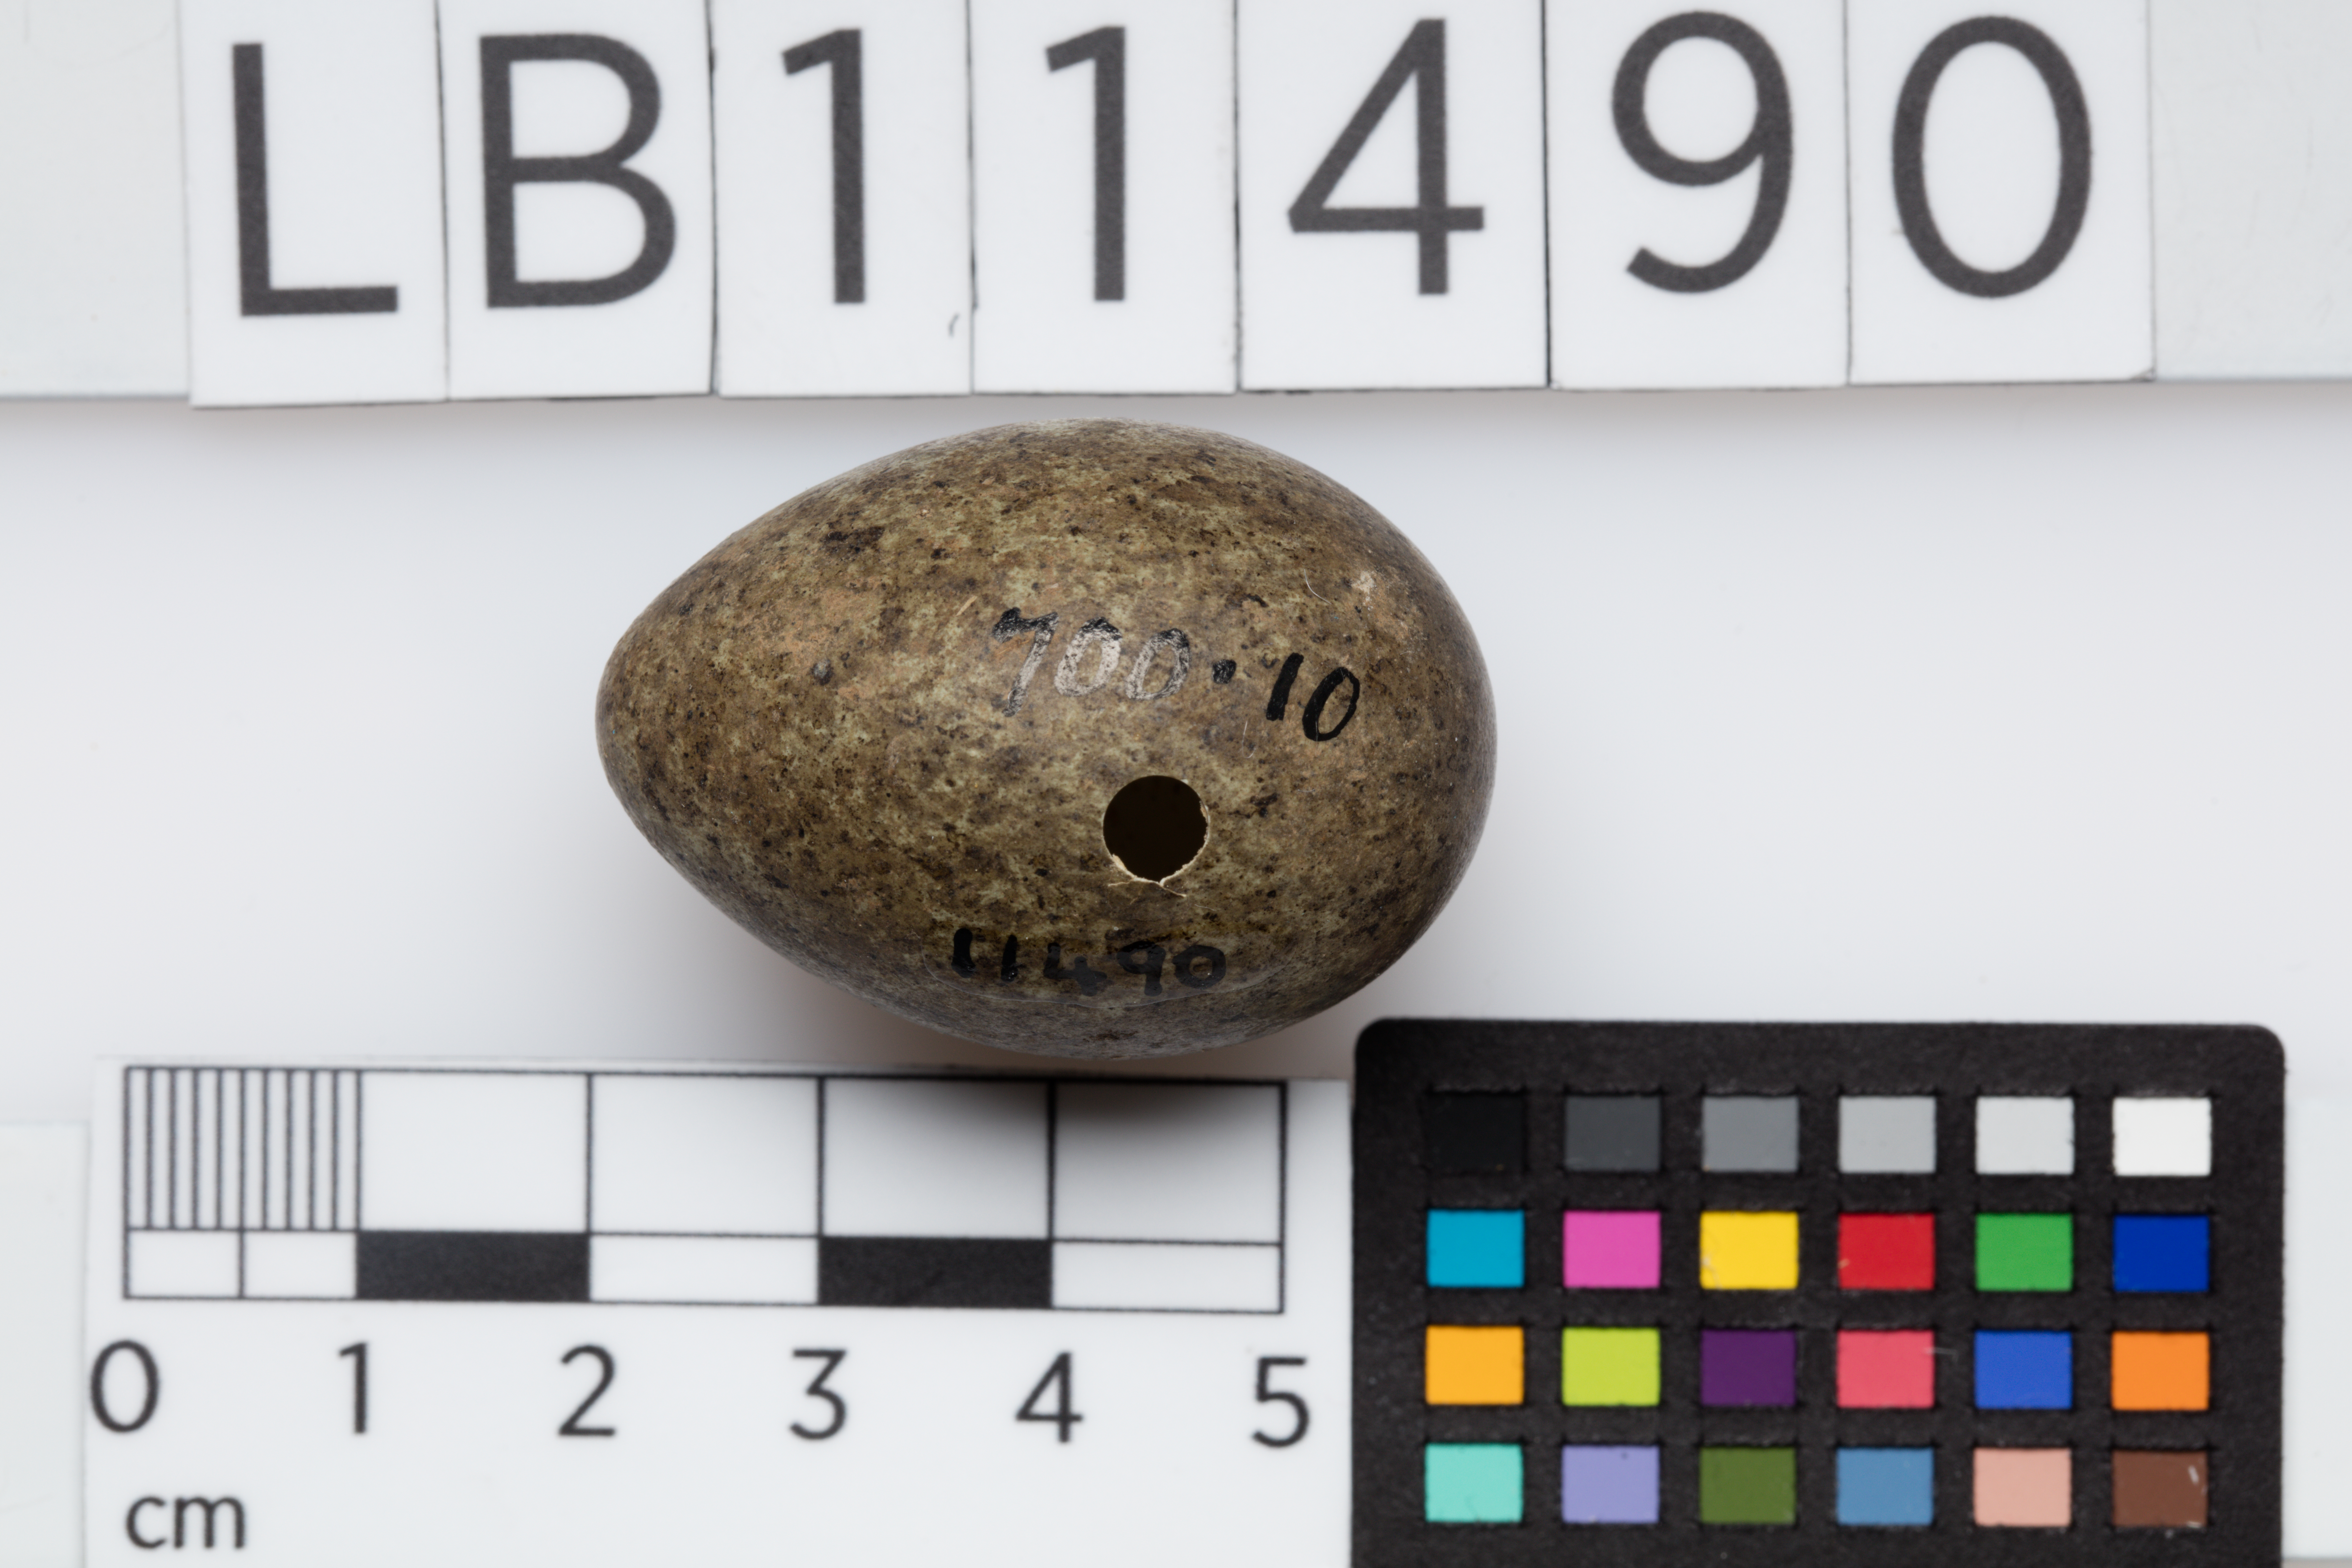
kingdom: Animalia
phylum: Chordata
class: Aves
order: Passeriformes
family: Corvidae
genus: Corvus
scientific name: Corvus frugilegus
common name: Rook
